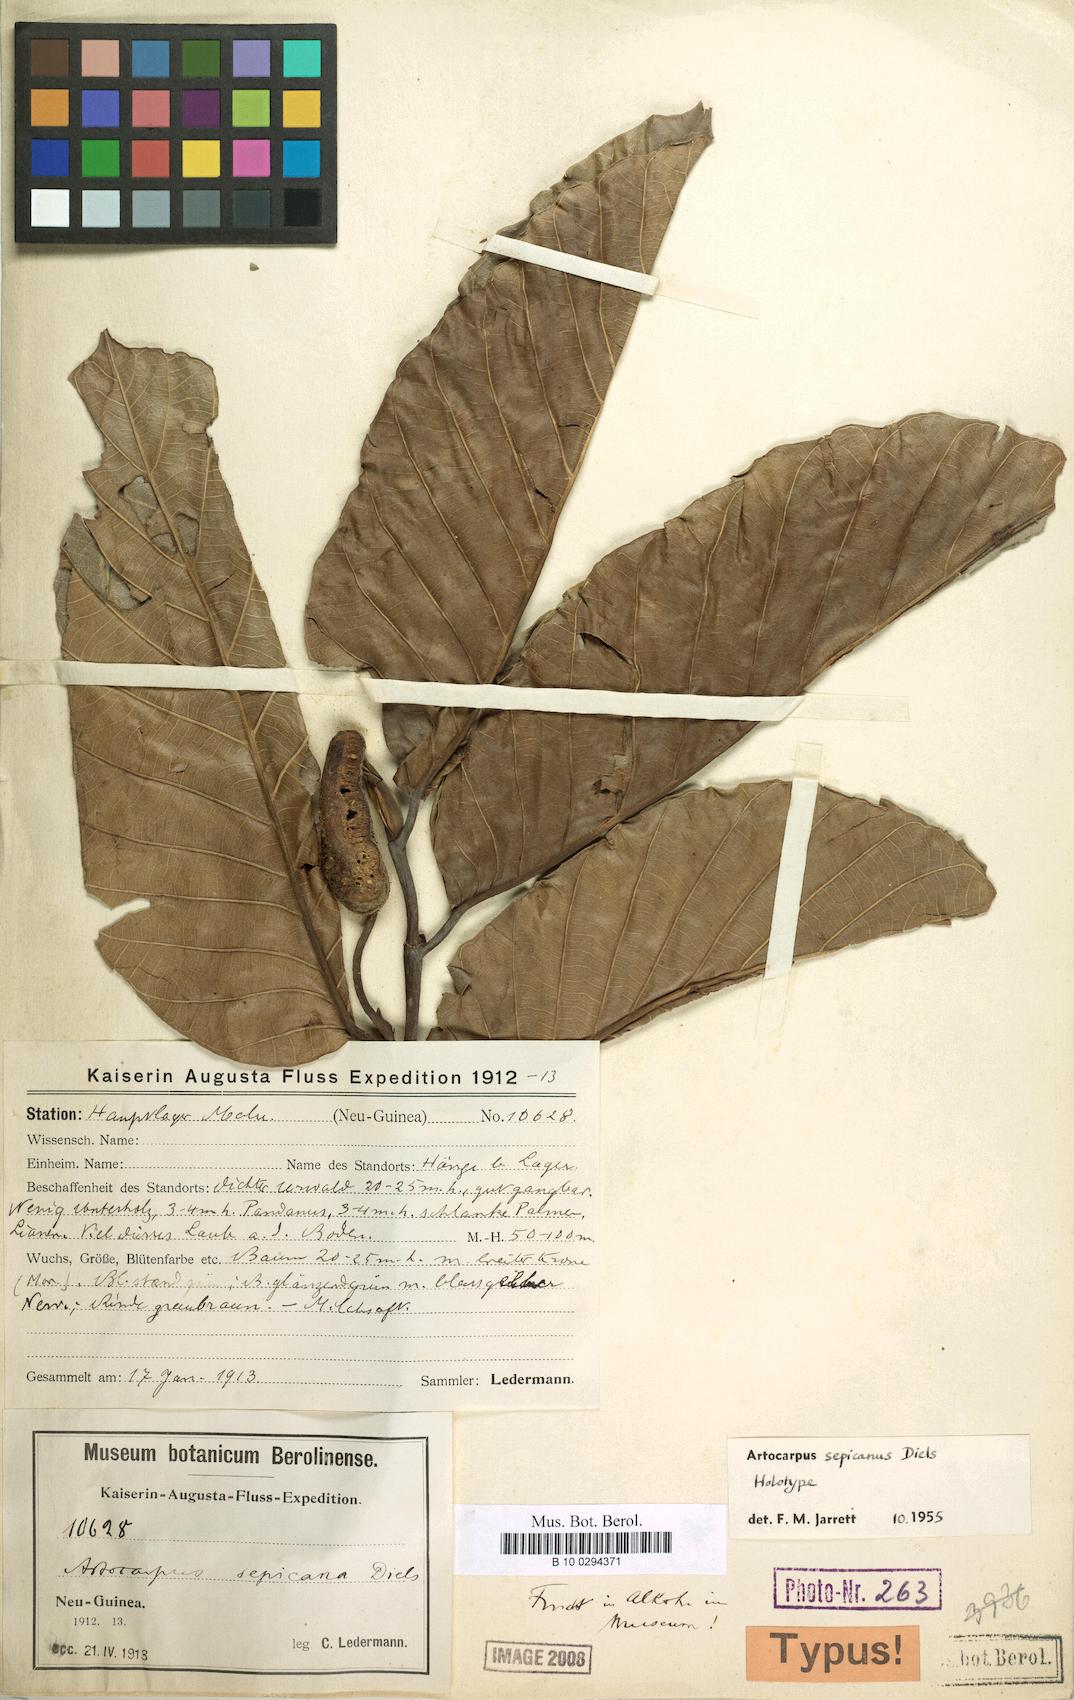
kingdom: Plantae
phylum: Tracheophyta
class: Magnoliopsida
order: Rosales
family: Moraceae
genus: Artocarpus
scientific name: Artocarpus sepicanus
